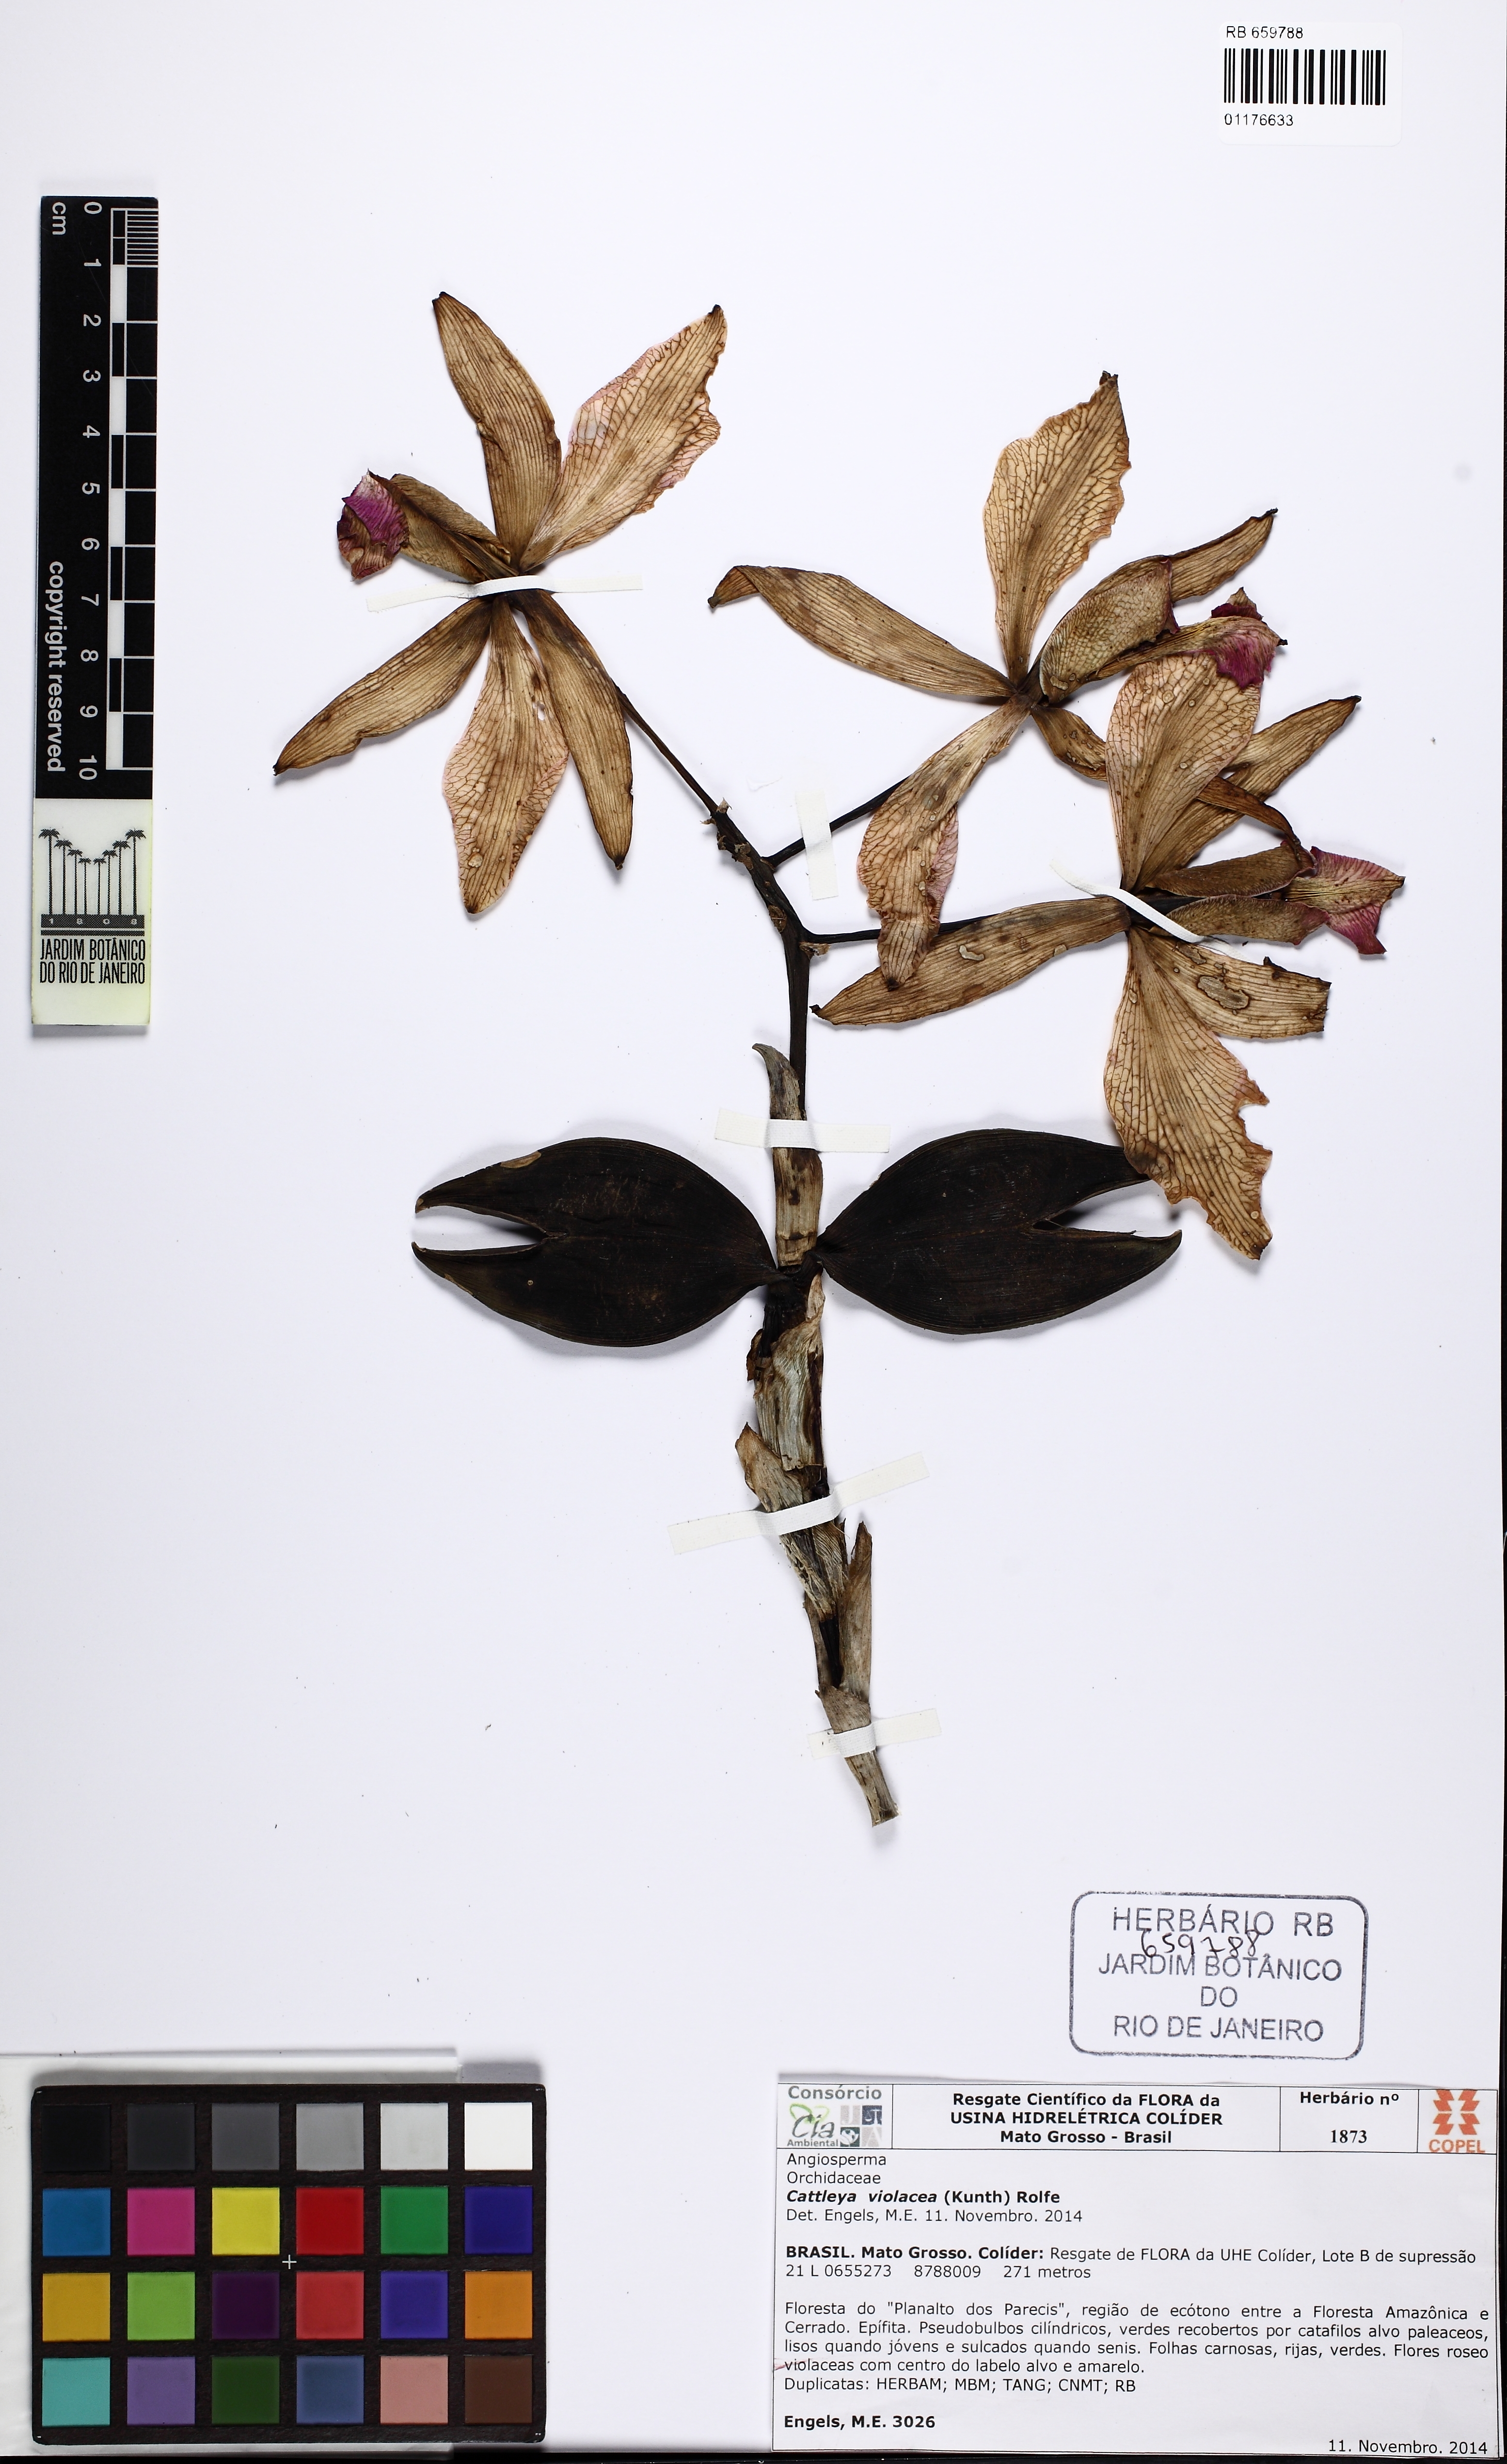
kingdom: Plantae
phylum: Tracheophyta
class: Liliopsida
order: Asparagales
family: Orchidaceae
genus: Cattleya
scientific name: Cattleya violacea
